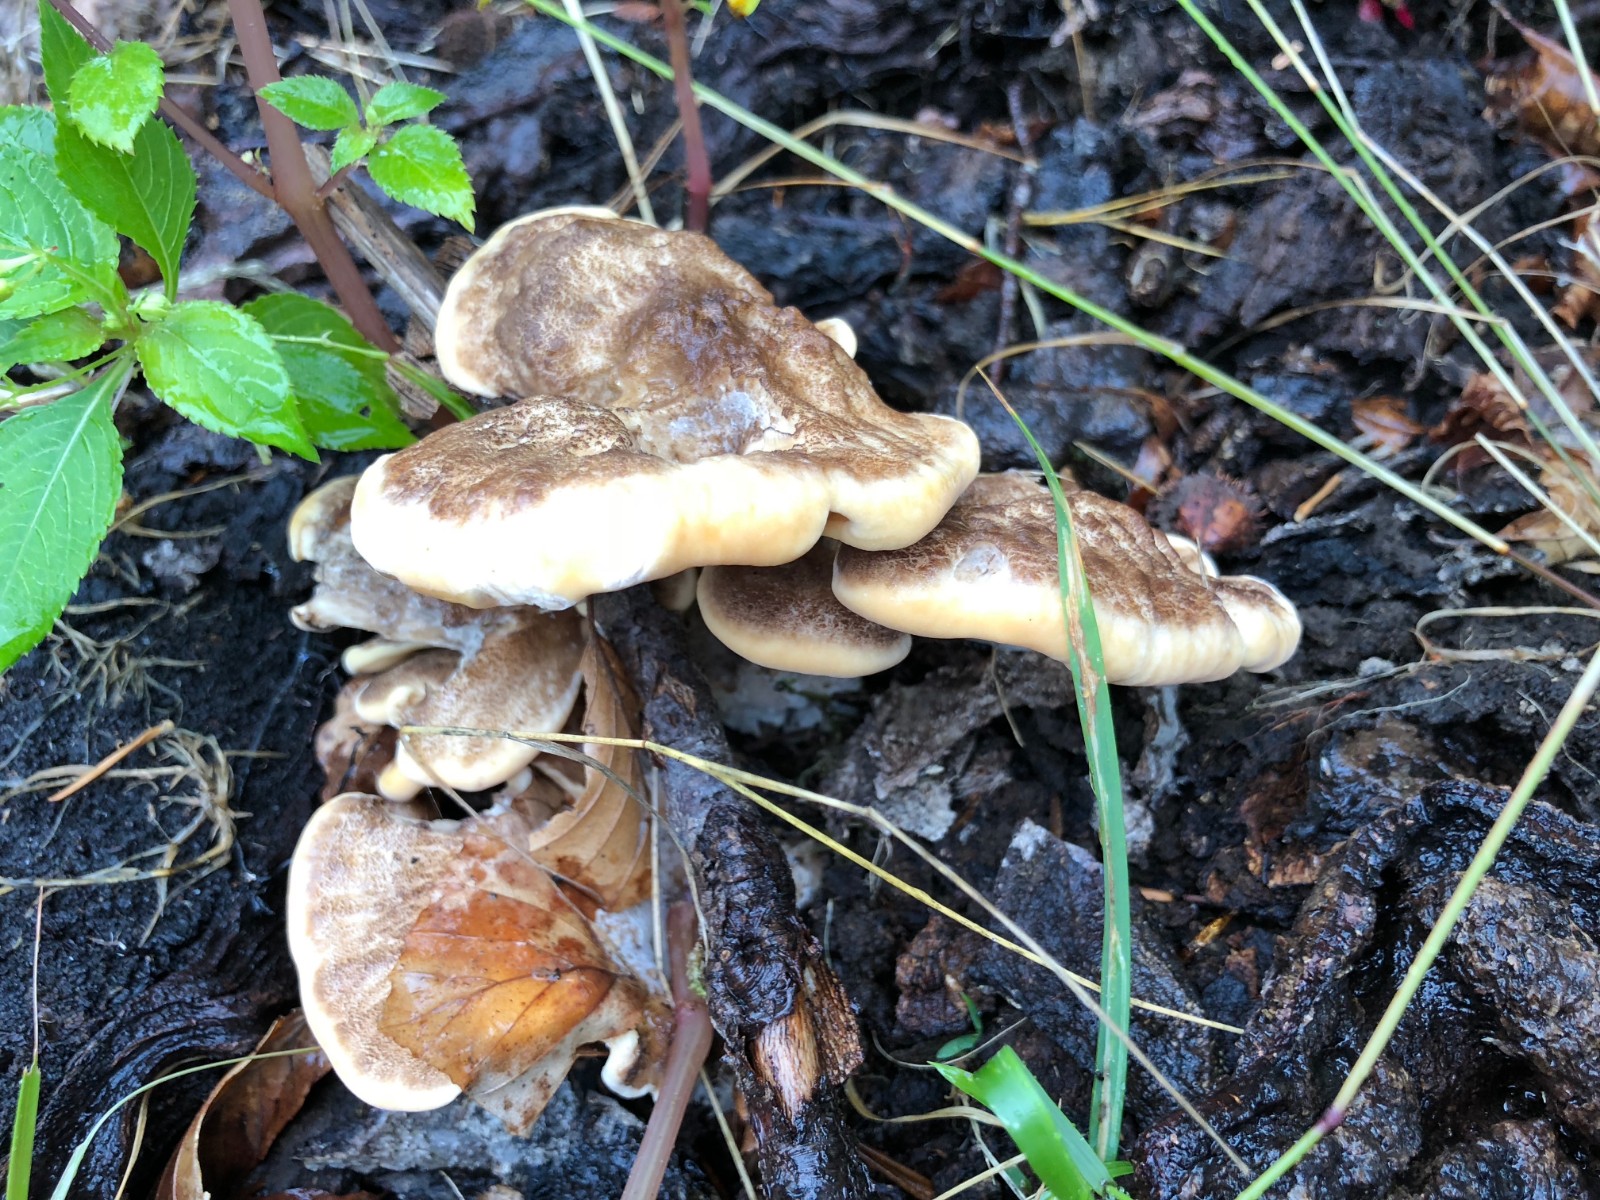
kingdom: Fungi
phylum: Basidiomycota
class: Agaricomycetes
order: Polyporales
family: Meripilaceae
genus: Meripilus
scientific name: Meripilus giganteus
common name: kæmpeporesvamp
